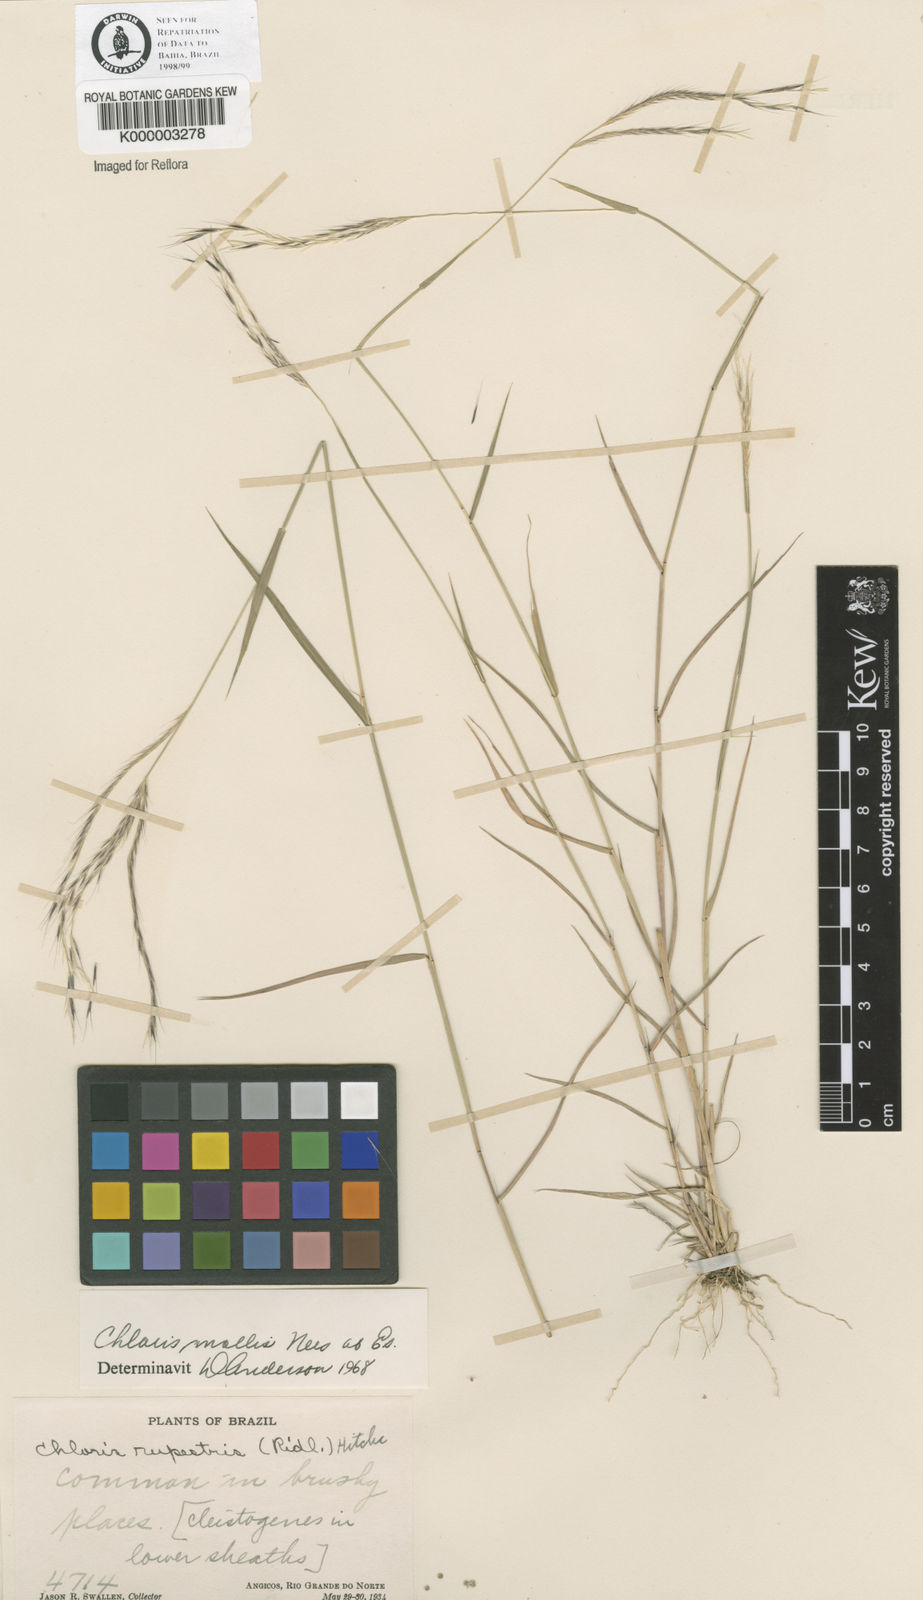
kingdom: Plantae
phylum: Tracheophyta
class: Liliopsida
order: Poales
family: Poaceae
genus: Leptochloa
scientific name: Leptochloa anisopoda
